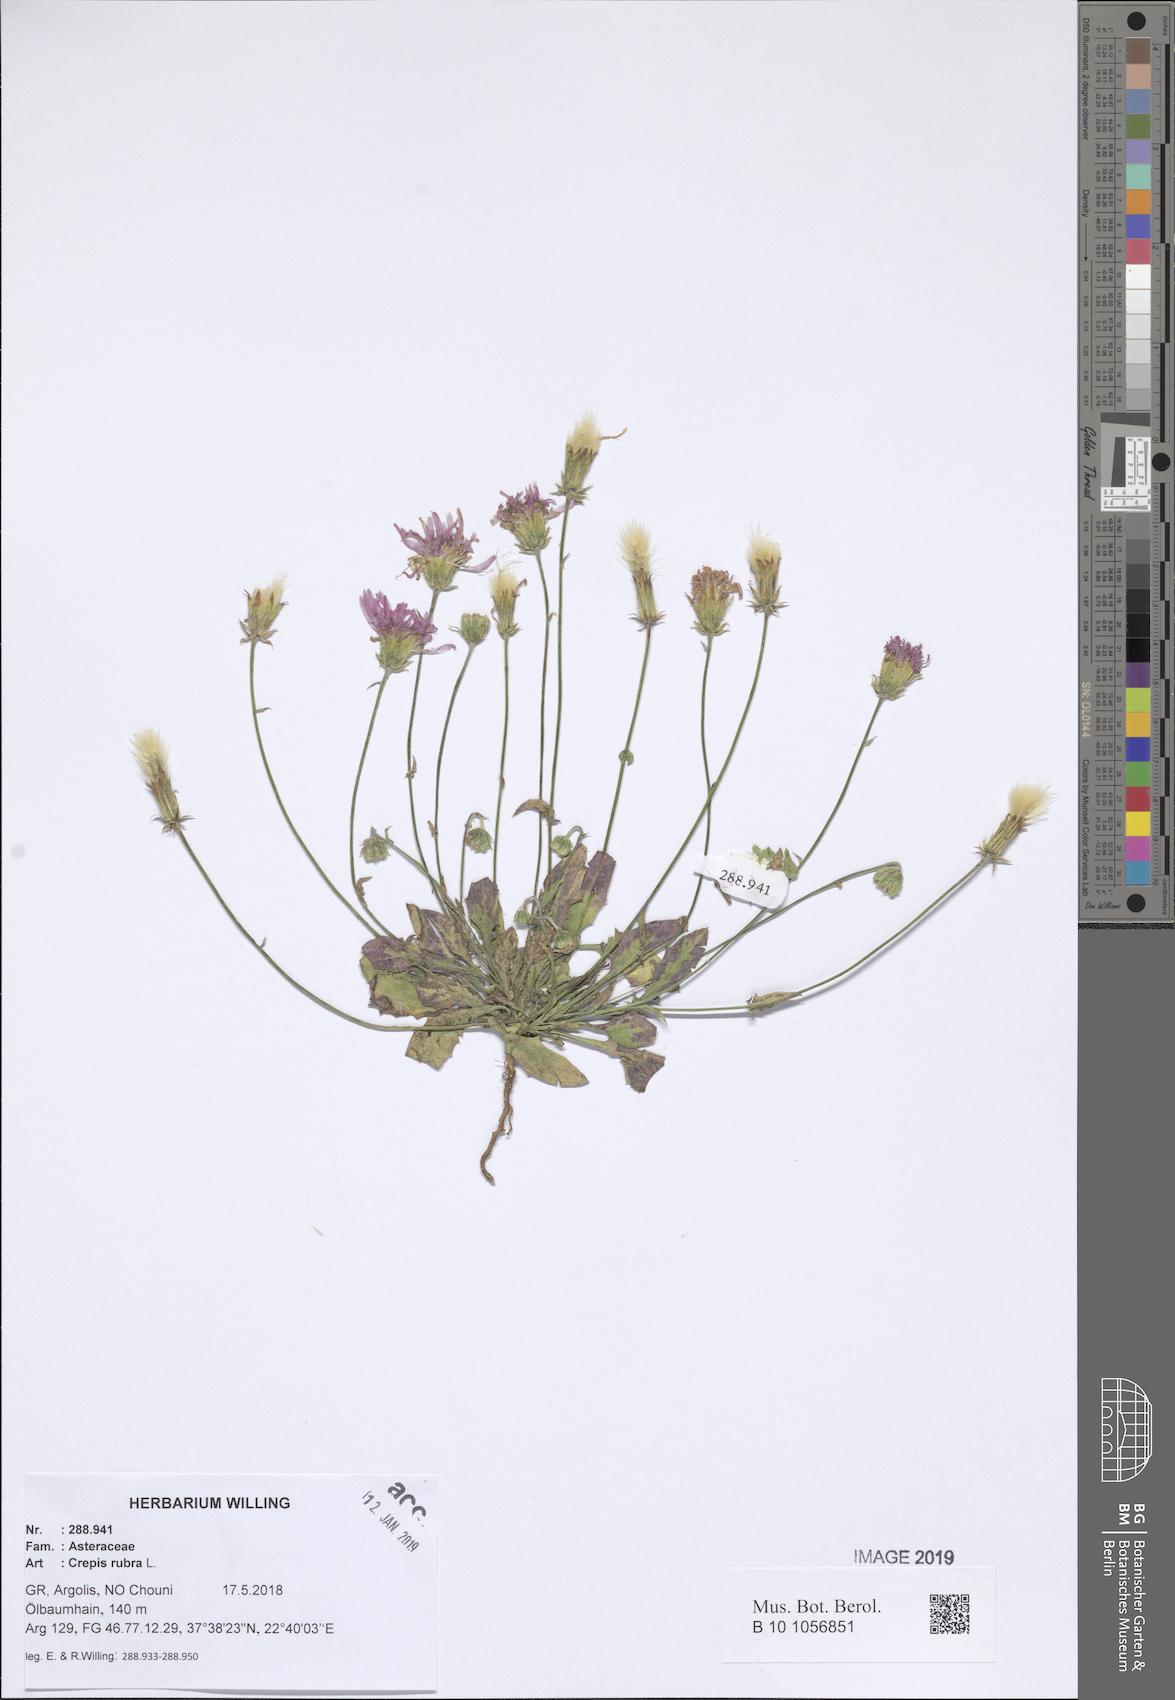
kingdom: Plantae
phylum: Tracheophyta
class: Magnoliopsida
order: Asterales
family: Asteraceae
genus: Crepis
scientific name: Crepis rubra
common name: Pink hawk's-beard
